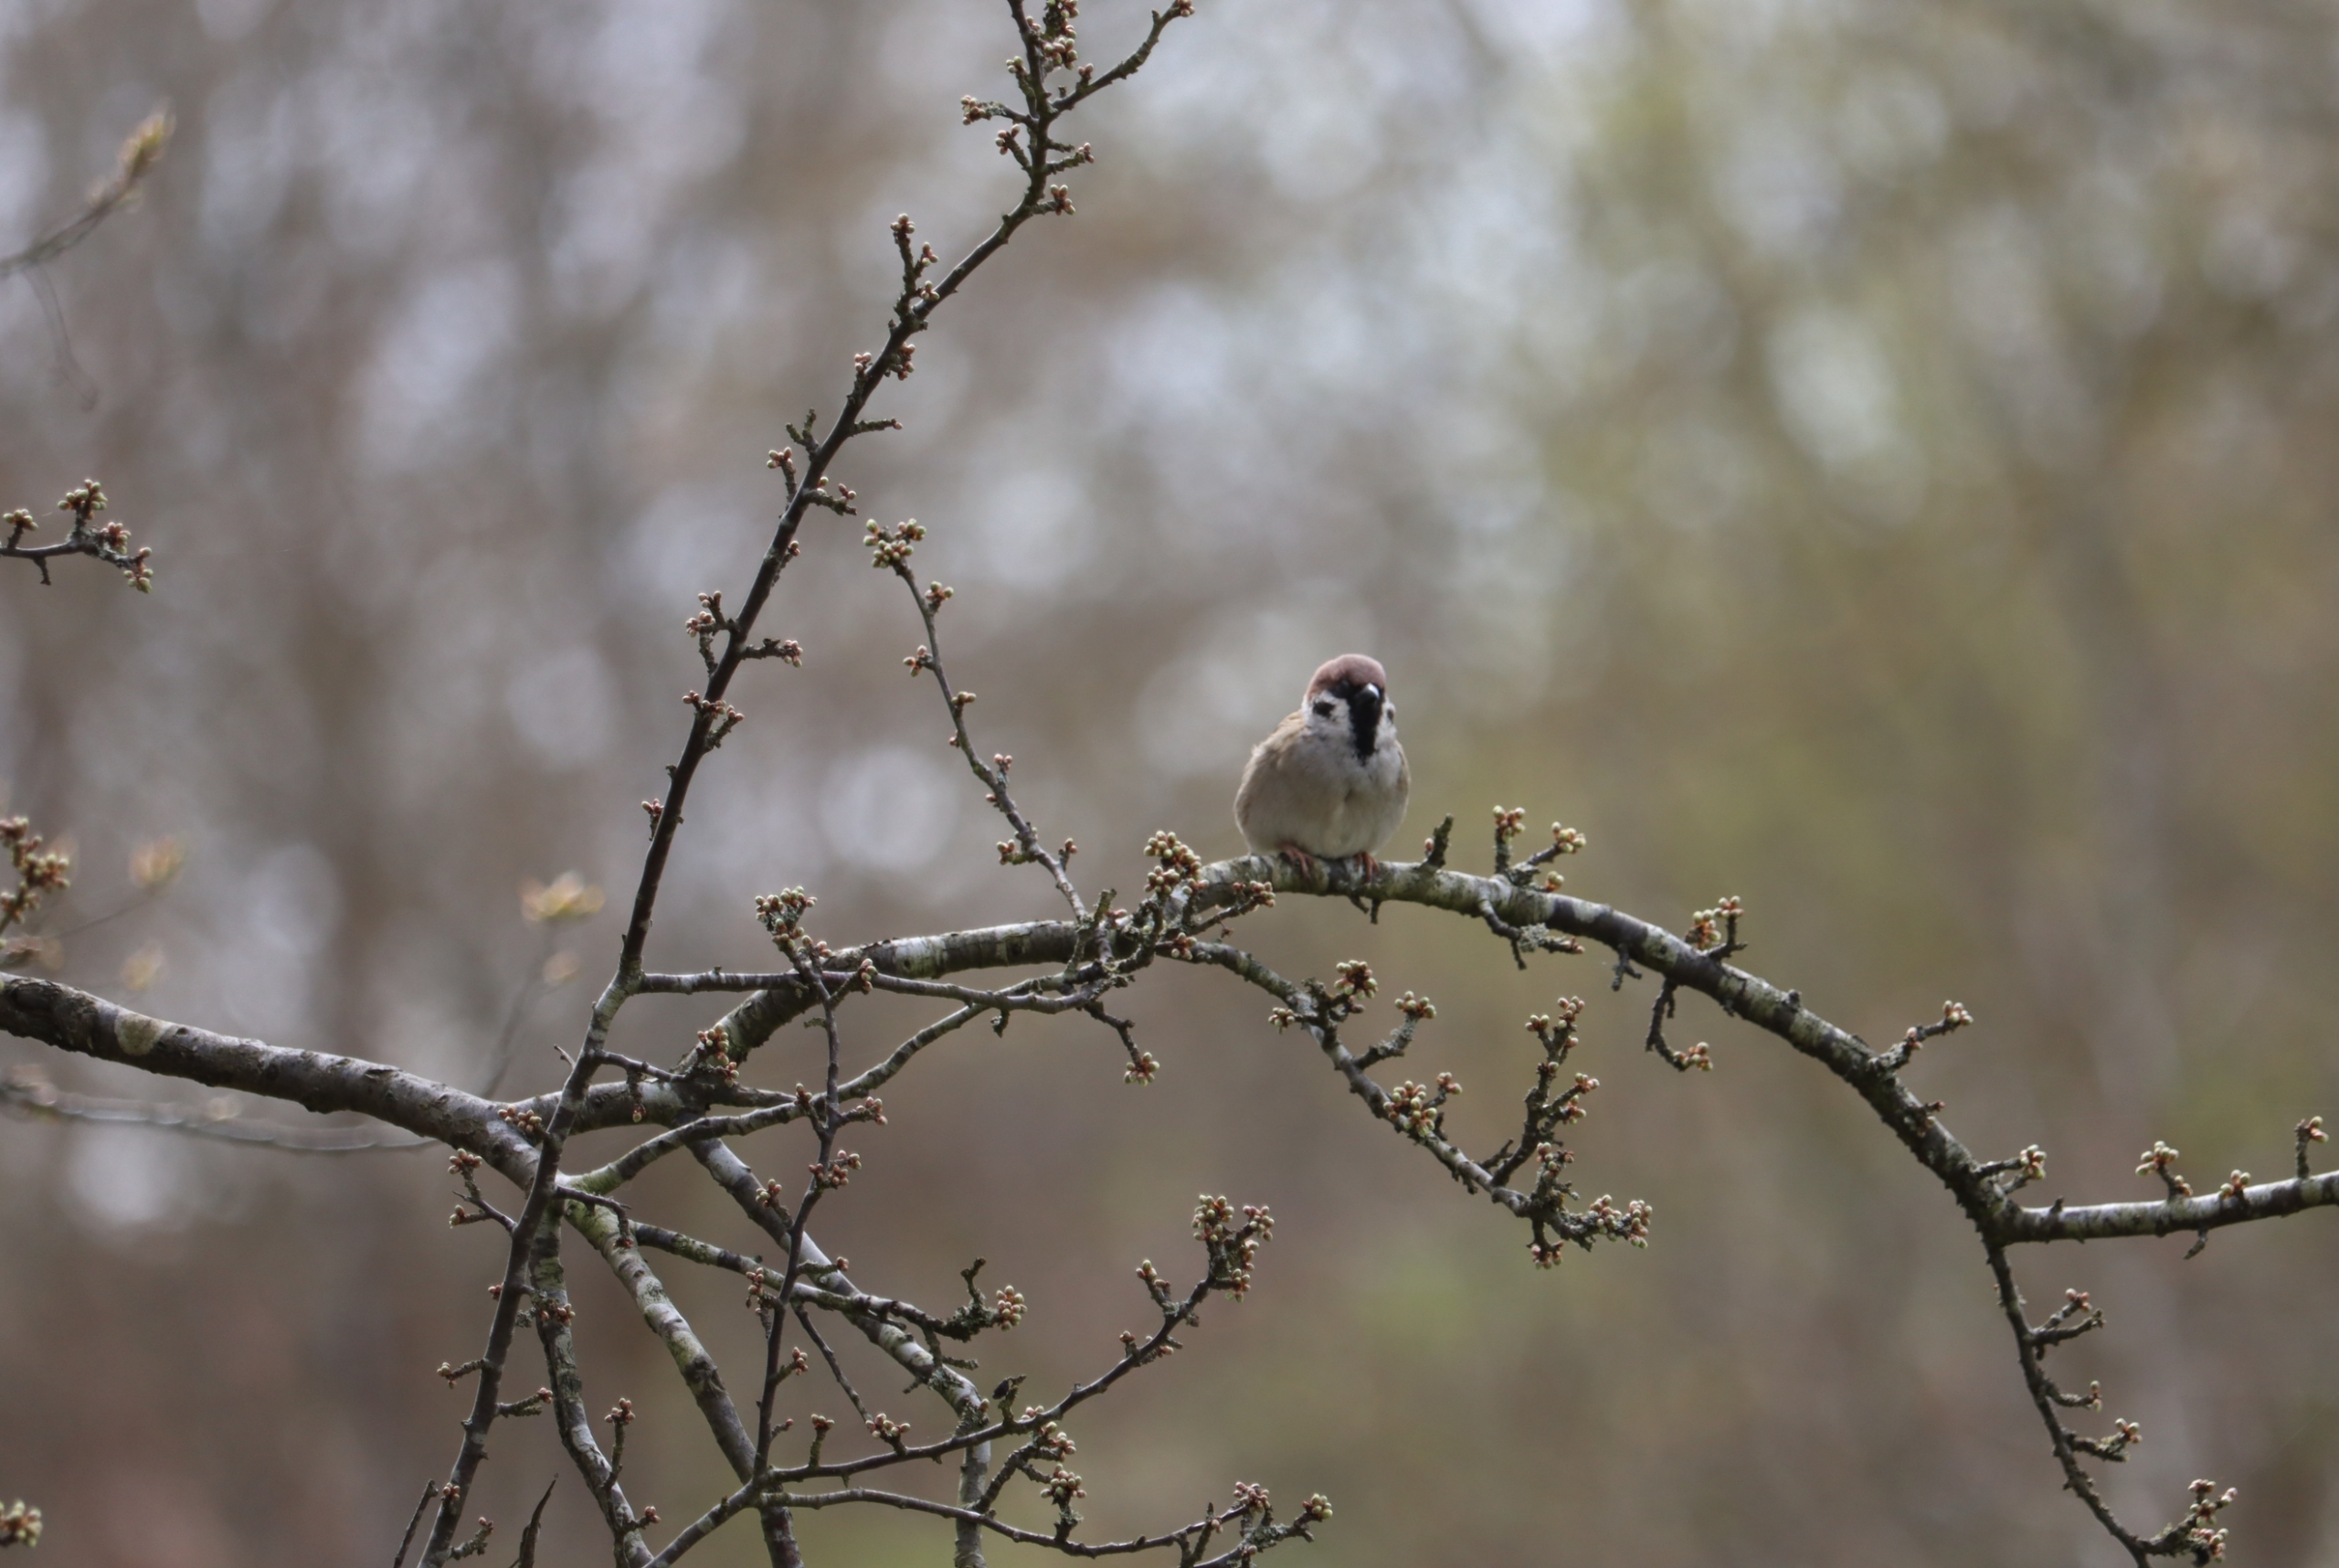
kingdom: Animalia
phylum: Chordata
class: Aves
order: Passeriformes
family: Passeridae
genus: Passer
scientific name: Passer montanus
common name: Skovspurv
